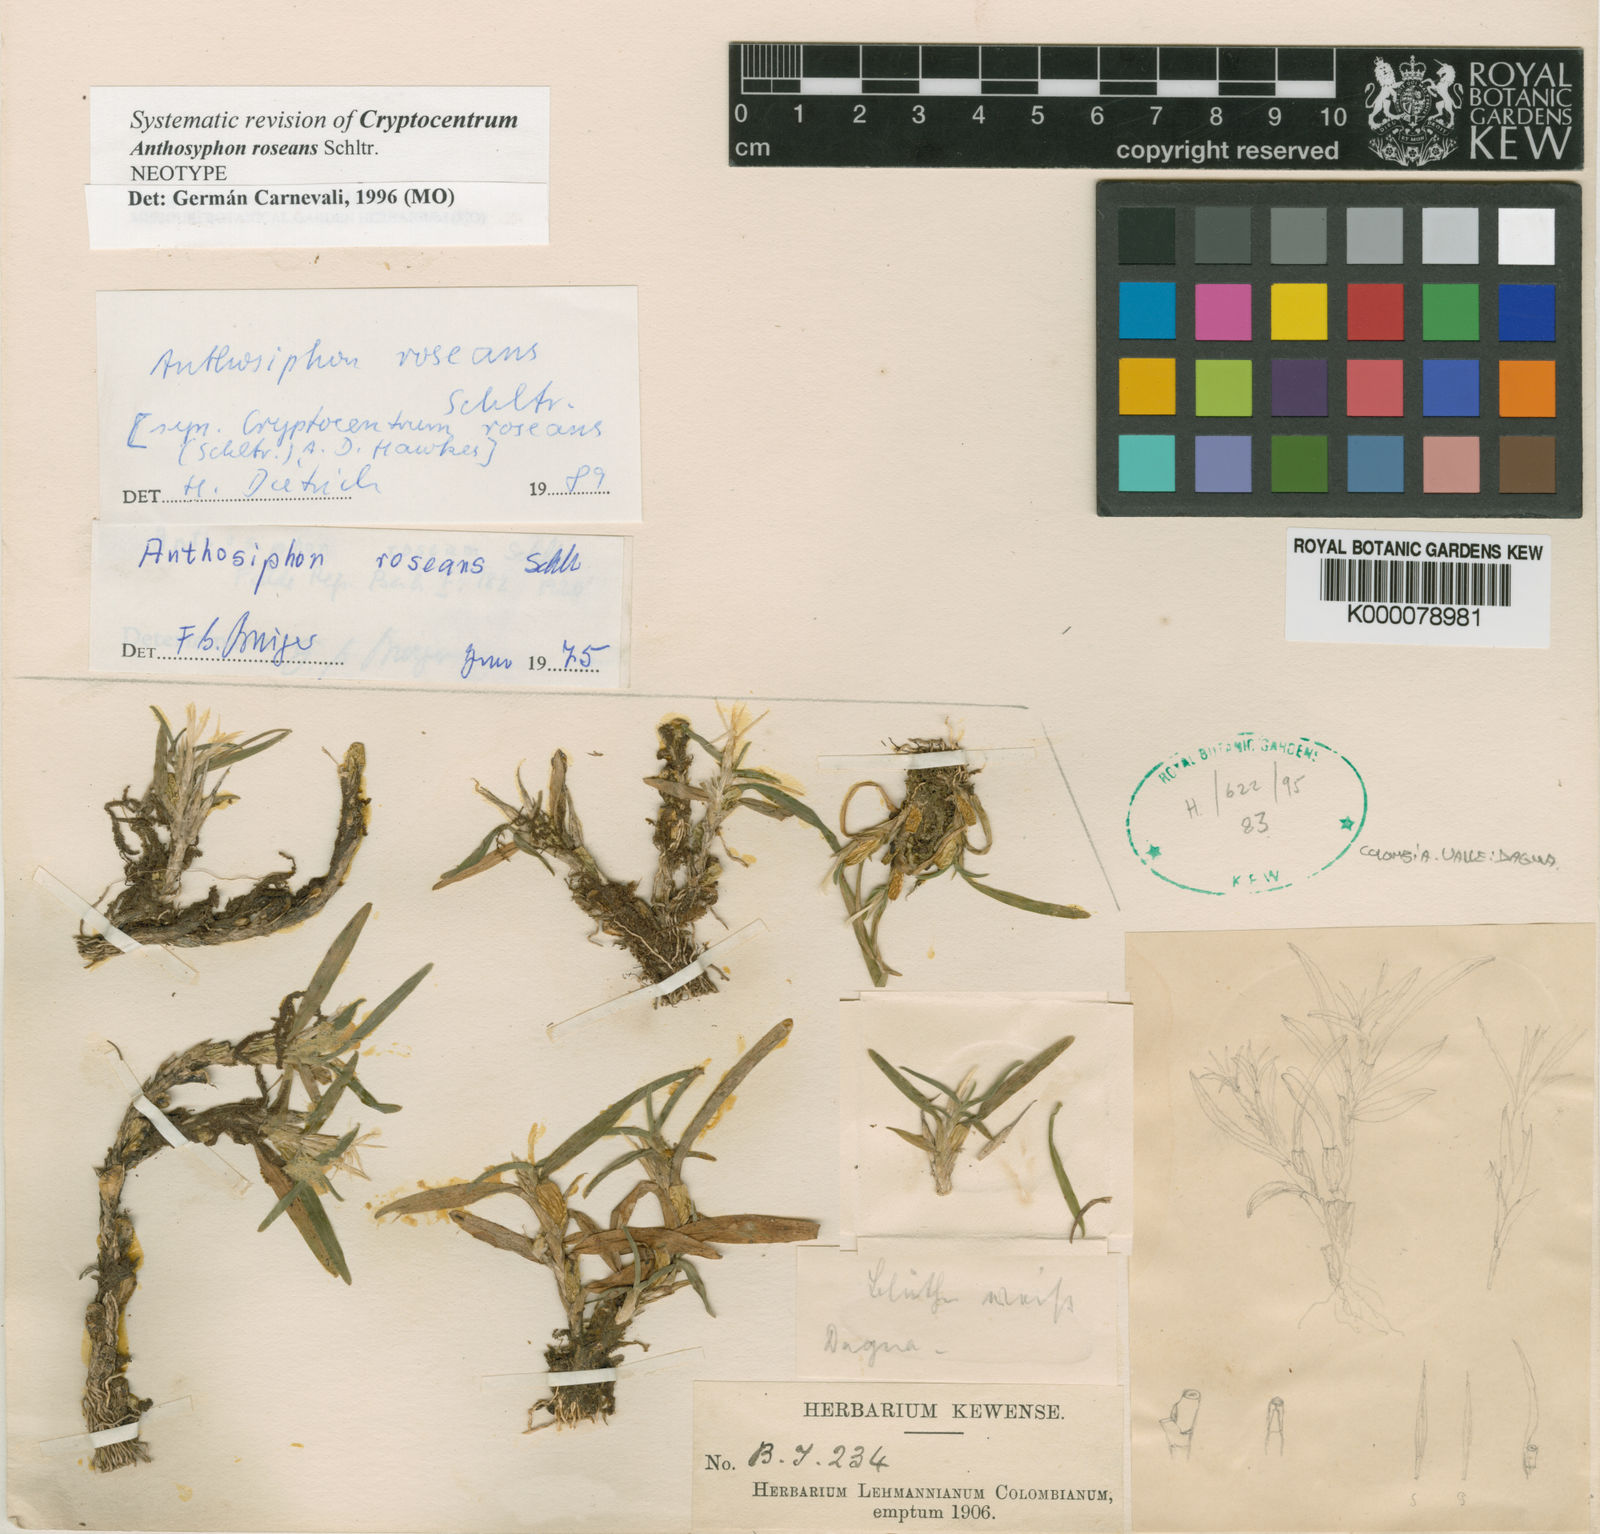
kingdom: Plantae
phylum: Tracheophyta
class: Liliopsida
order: Asparagales
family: Orchidaceae
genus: Maxillaria
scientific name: Maxillaria roseans
